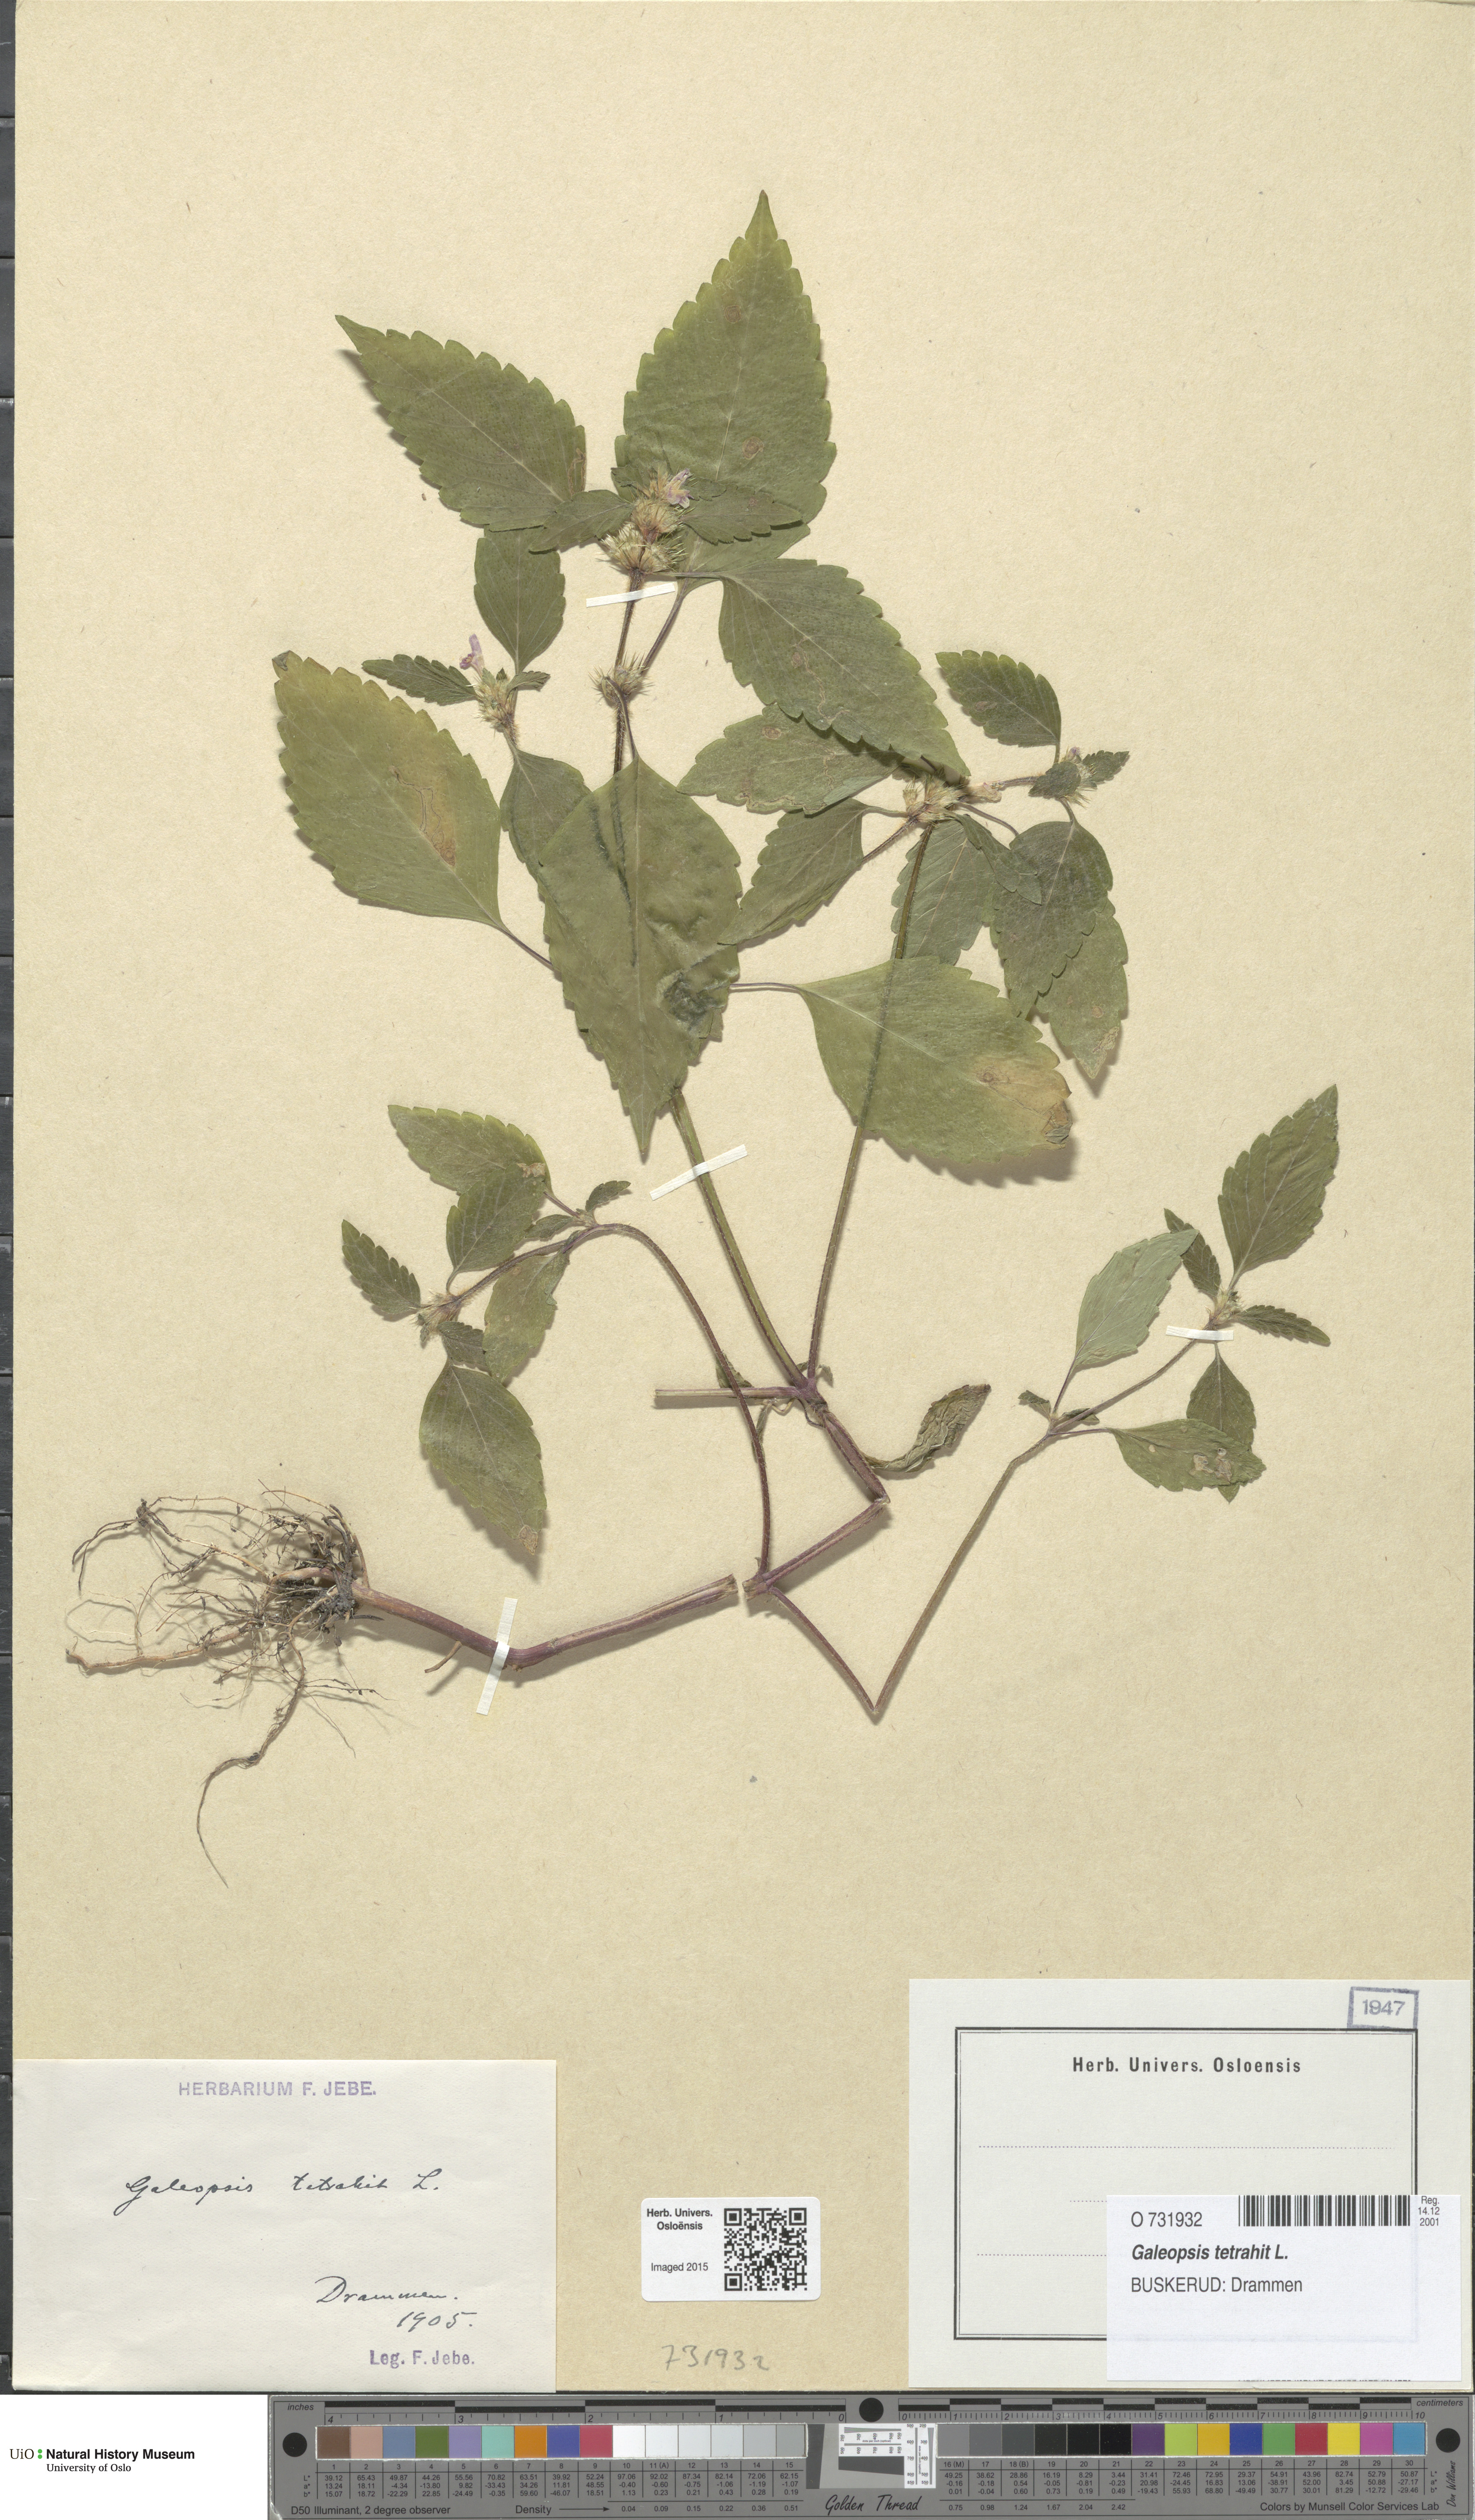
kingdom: Plantae
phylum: Tracheophyta
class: Magnoliopsida
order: Lamiales
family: Lamiaceae
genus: Galeopsis
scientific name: Galeopsis tetrahit
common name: Common hemp-nettle
